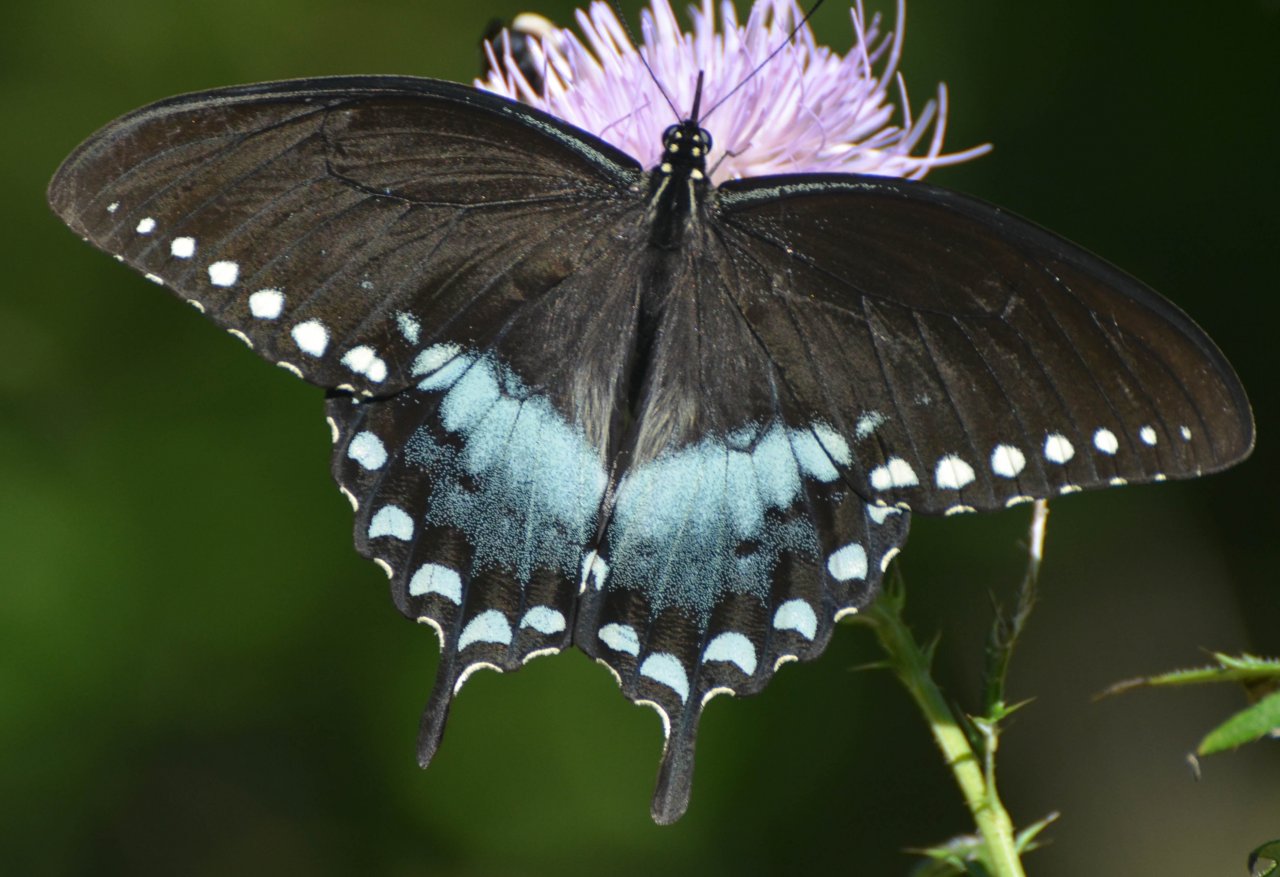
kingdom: Animalia
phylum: Arthropoda
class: Insecta
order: Lepidoptera
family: Papilionidae
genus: Pterourus
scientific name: Pterourus troilus
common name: Spicebush Swallowtail
